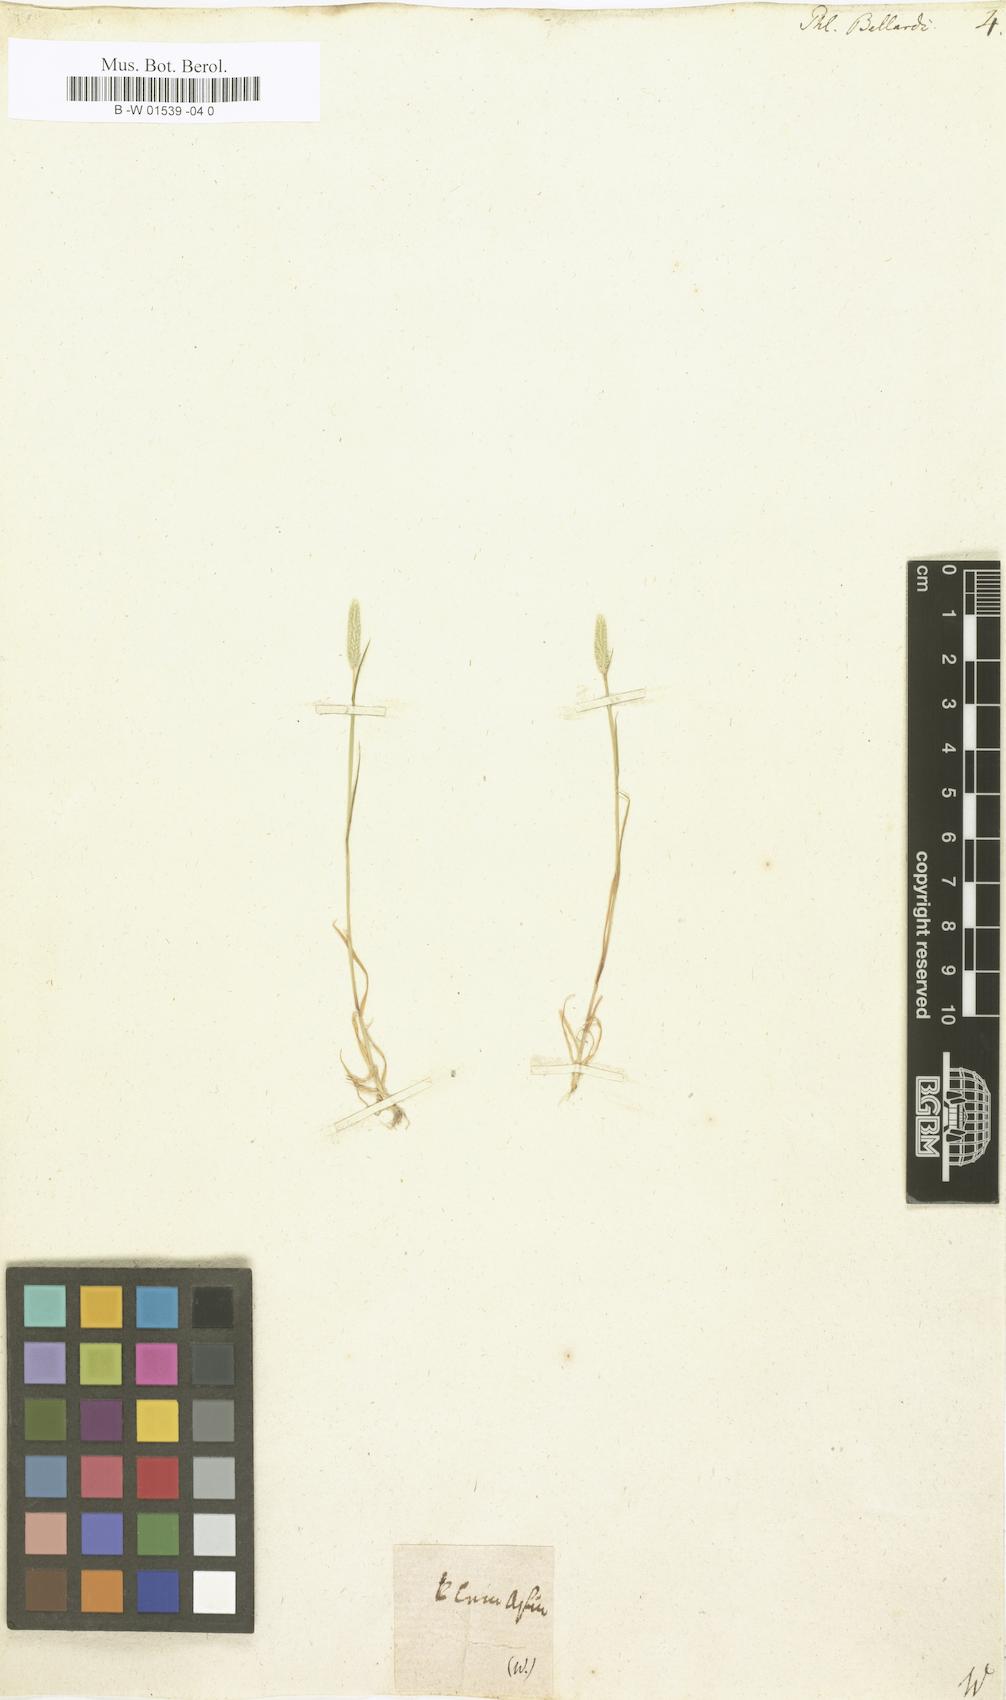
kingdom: Plantae
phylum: Tracheophyta
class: Liliopsida
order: Poales
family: Poaceae
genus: Phleum
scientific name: Phleum subulatum
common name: Italian timothy
